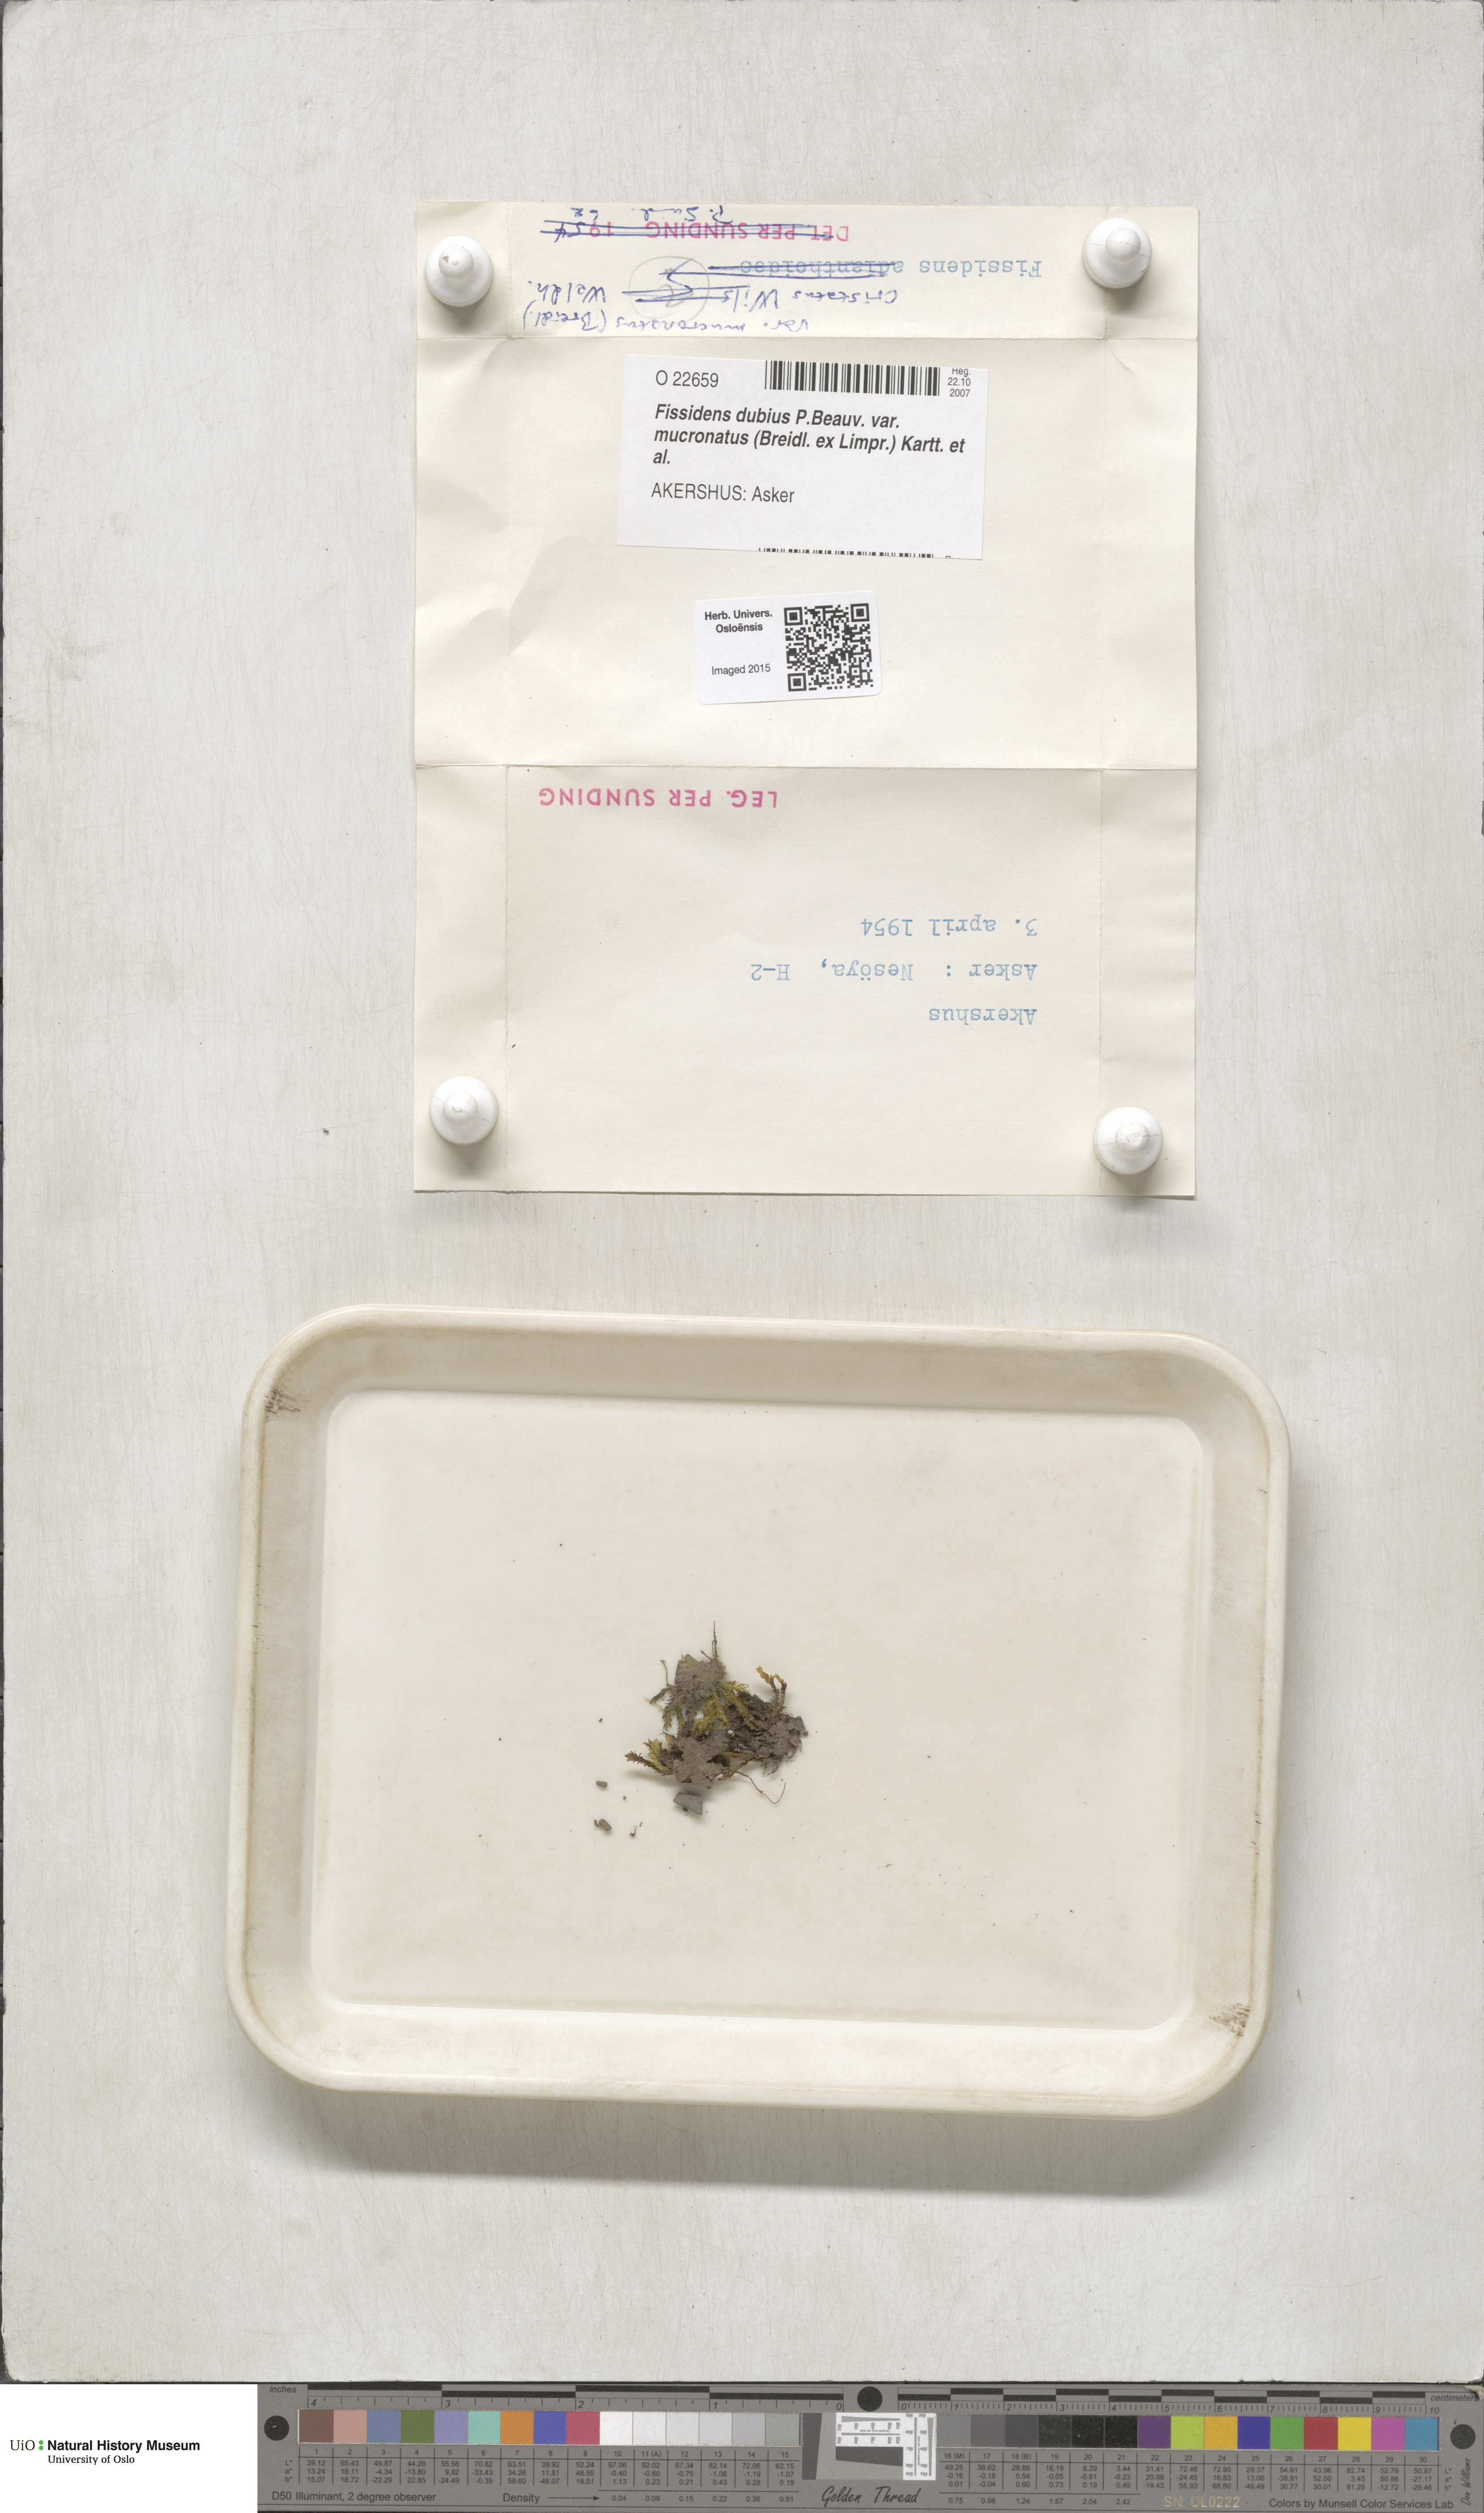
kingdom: Plantae
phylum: Bryophyta
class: Bryopsida
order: Dicranales
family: Fissidentaceae
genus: Fissidens
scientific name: Fissidens dubius
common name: Rock pocket moss
